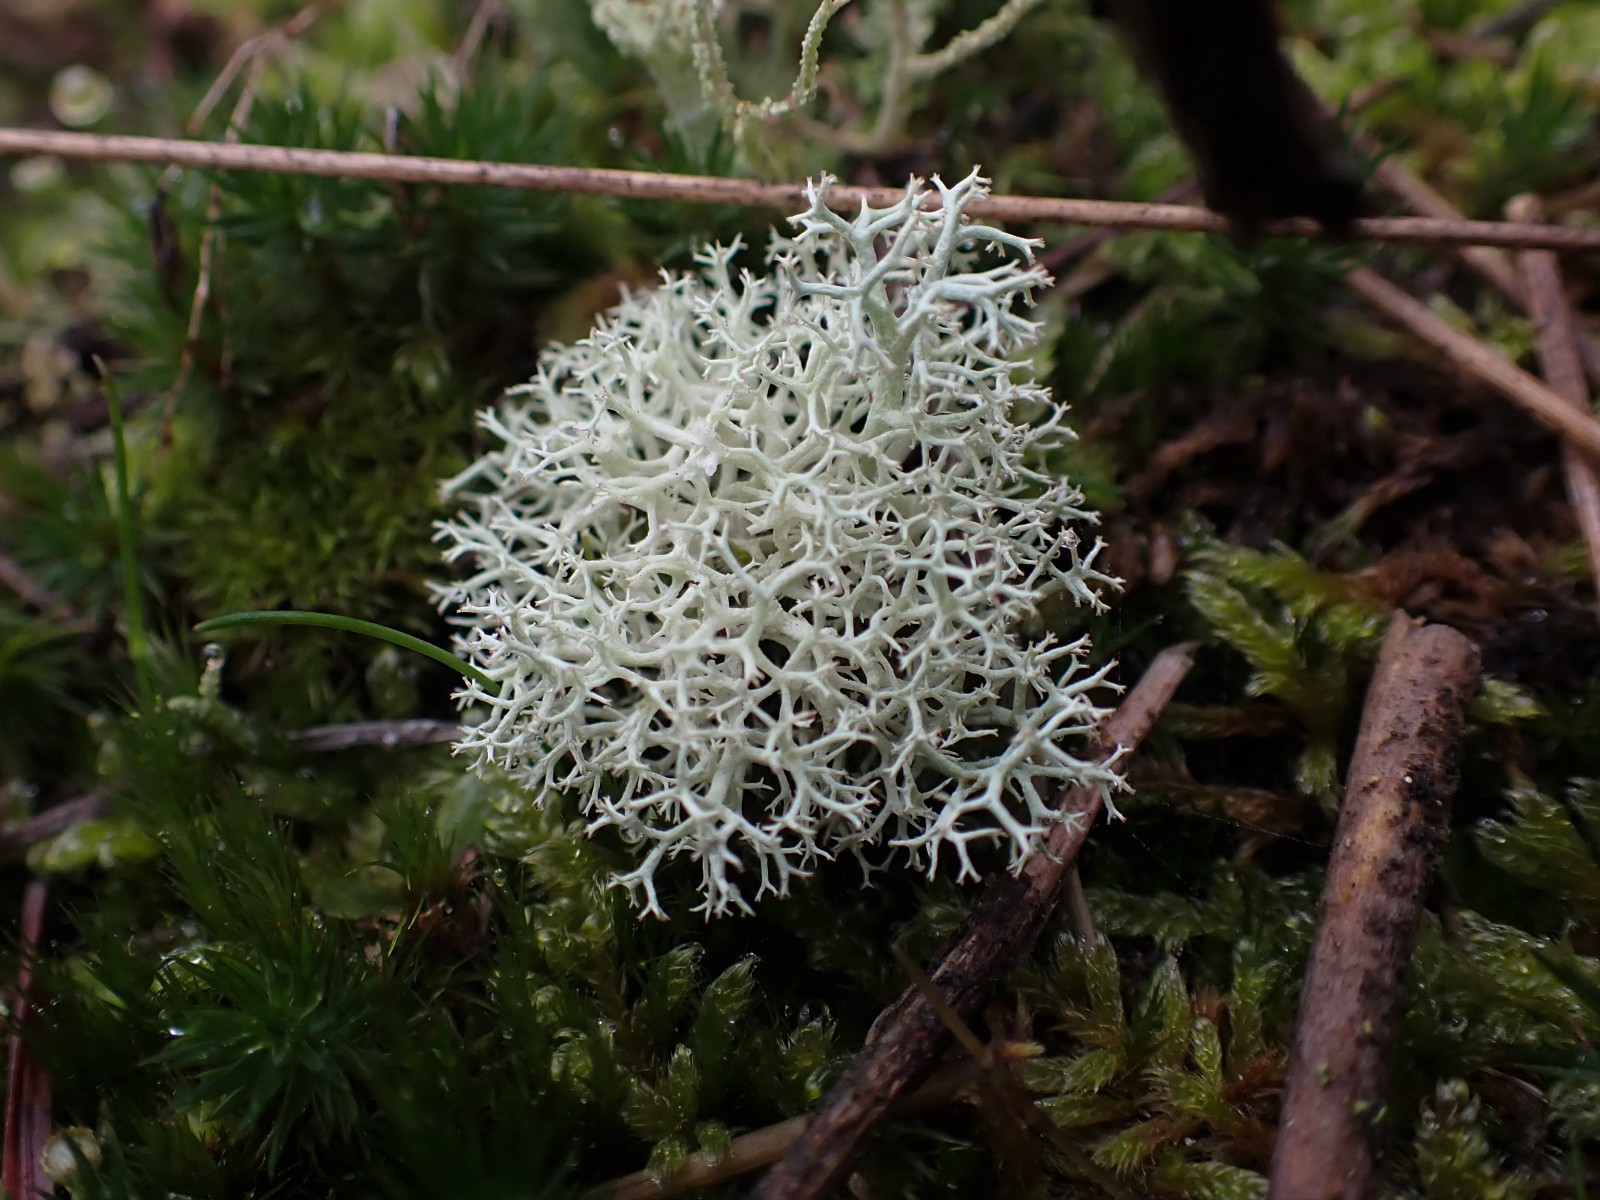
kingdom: Fungi
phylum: Ascomycota
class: Lecanoromycetes
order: Lecanorales
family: Cladoniaceae
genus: Cladonia
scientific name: Cladonia portentosa
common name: hede-rensdyrlav
